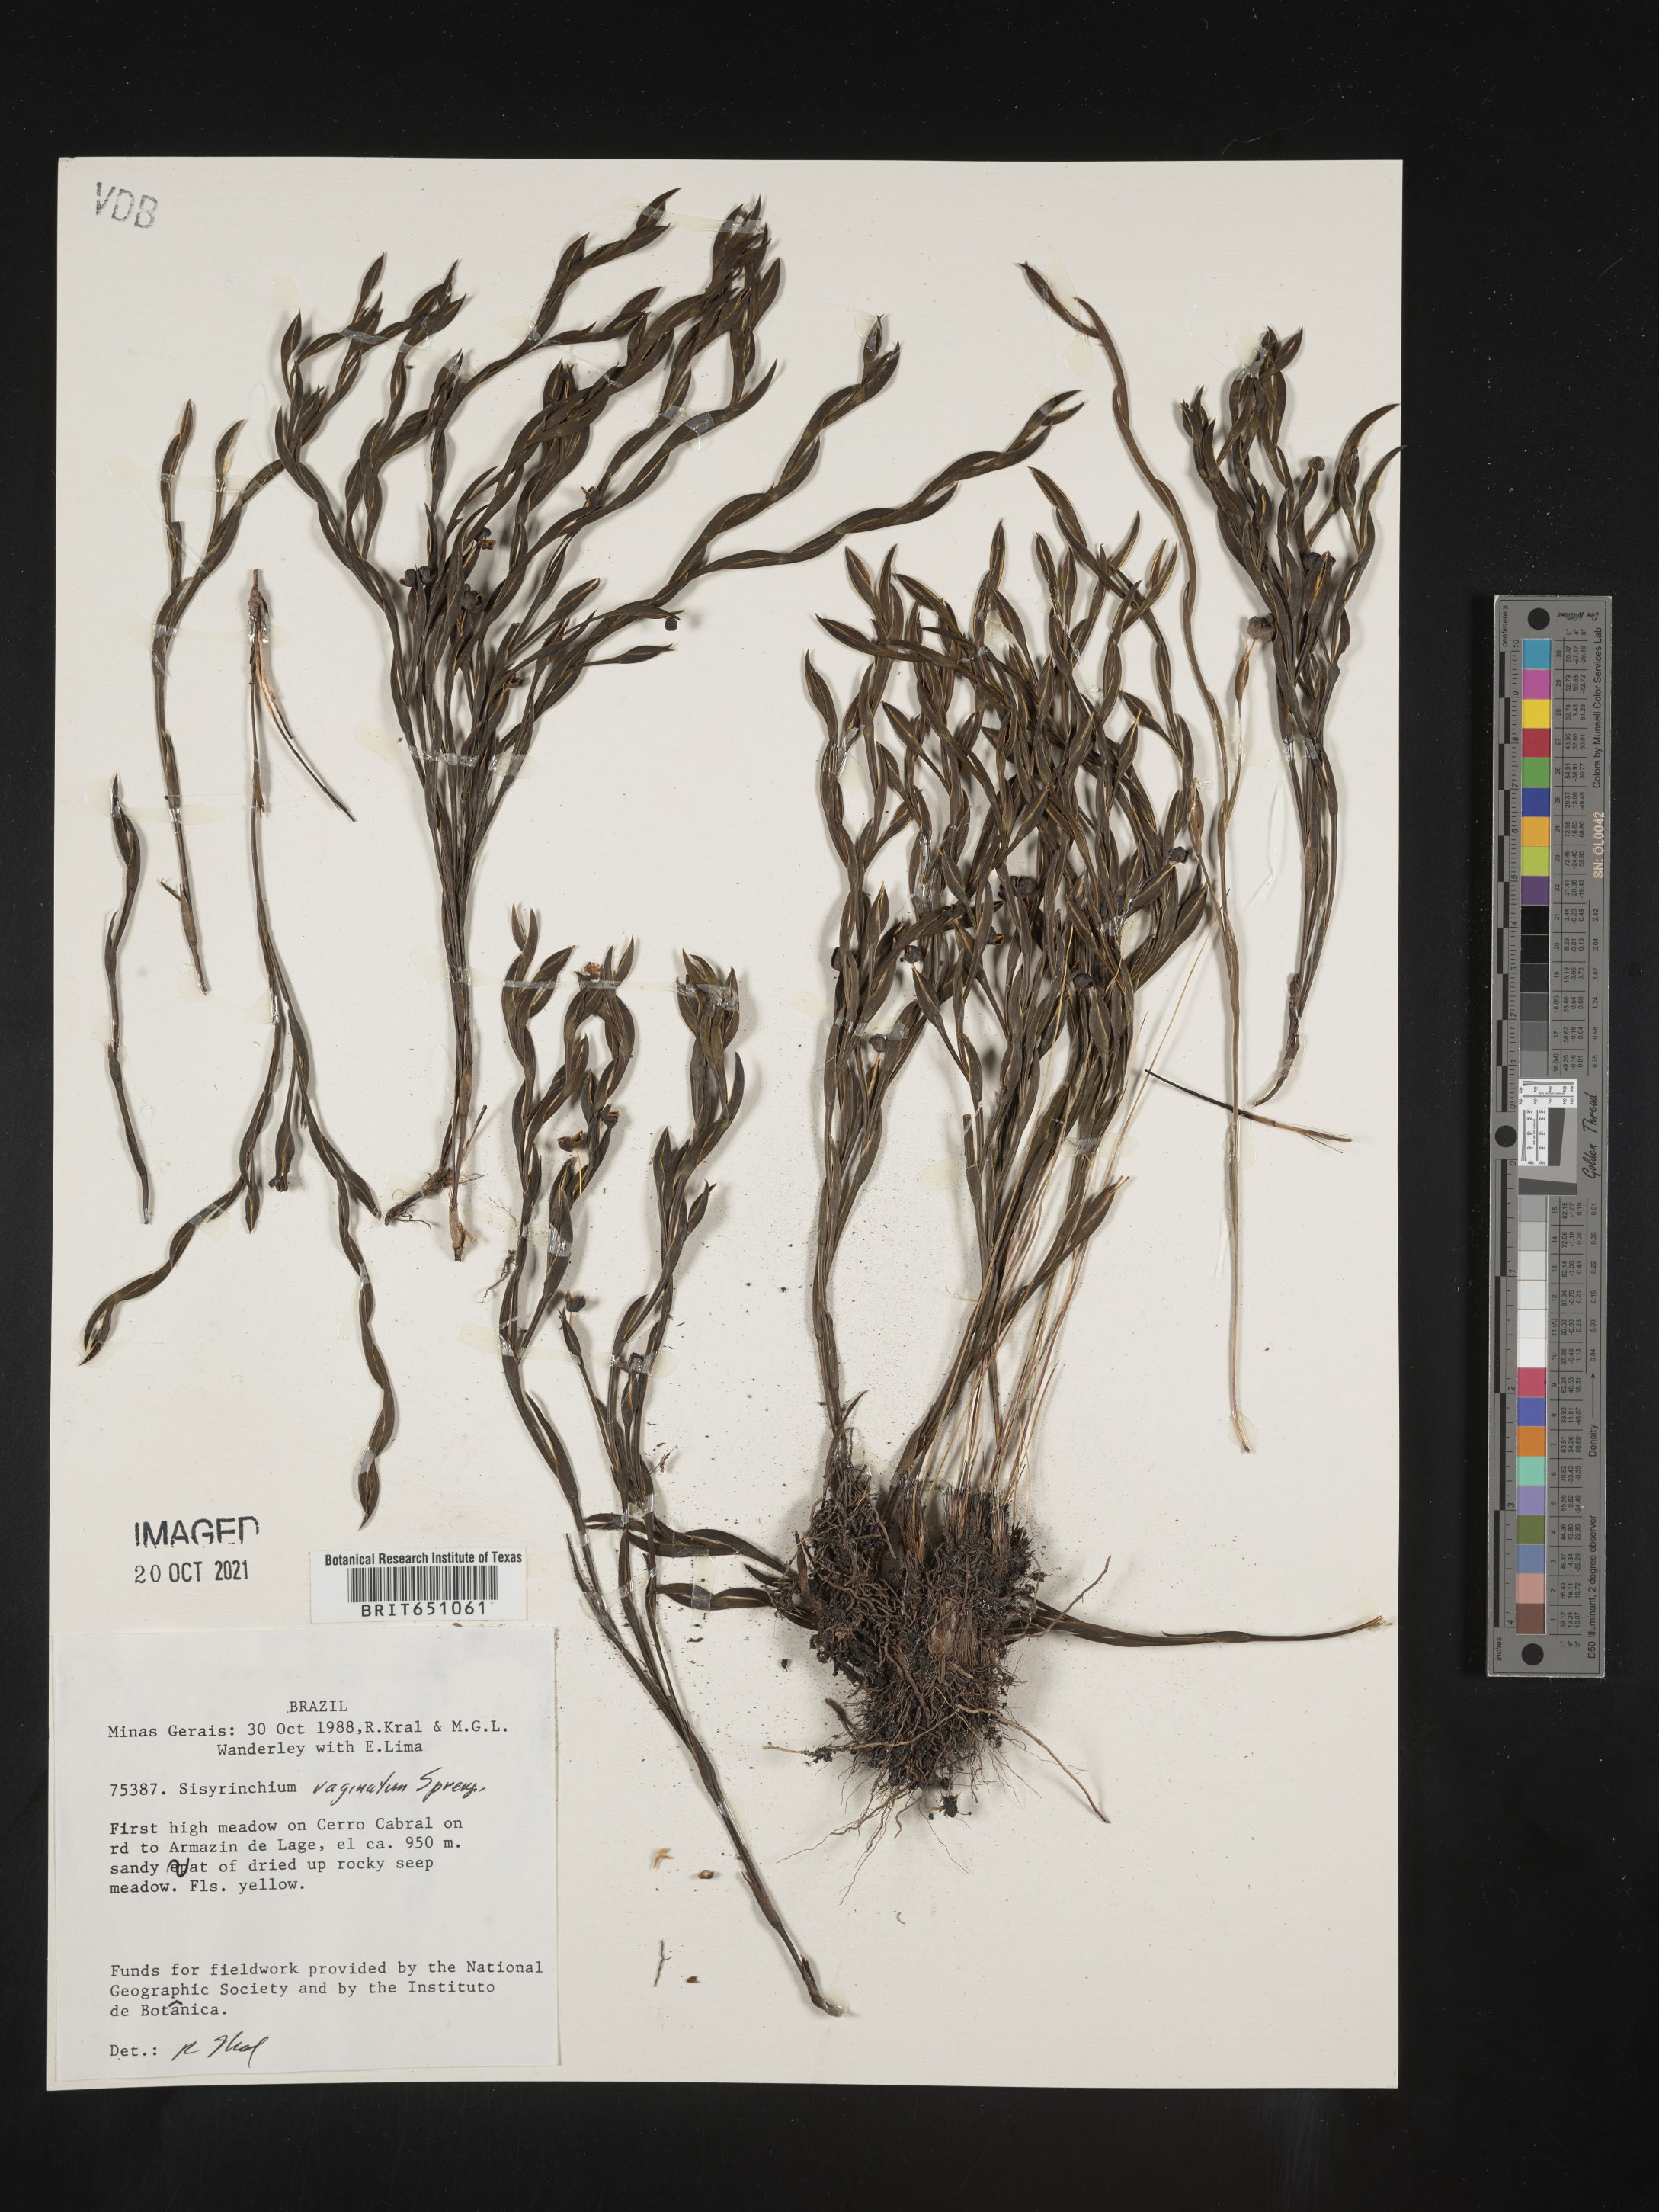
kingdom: Plantae
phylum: Tracheophyta
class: Liliopsida
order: Asparagales
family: Iridaceae
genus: Sisyrinchium
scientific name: Sisyrinchium
